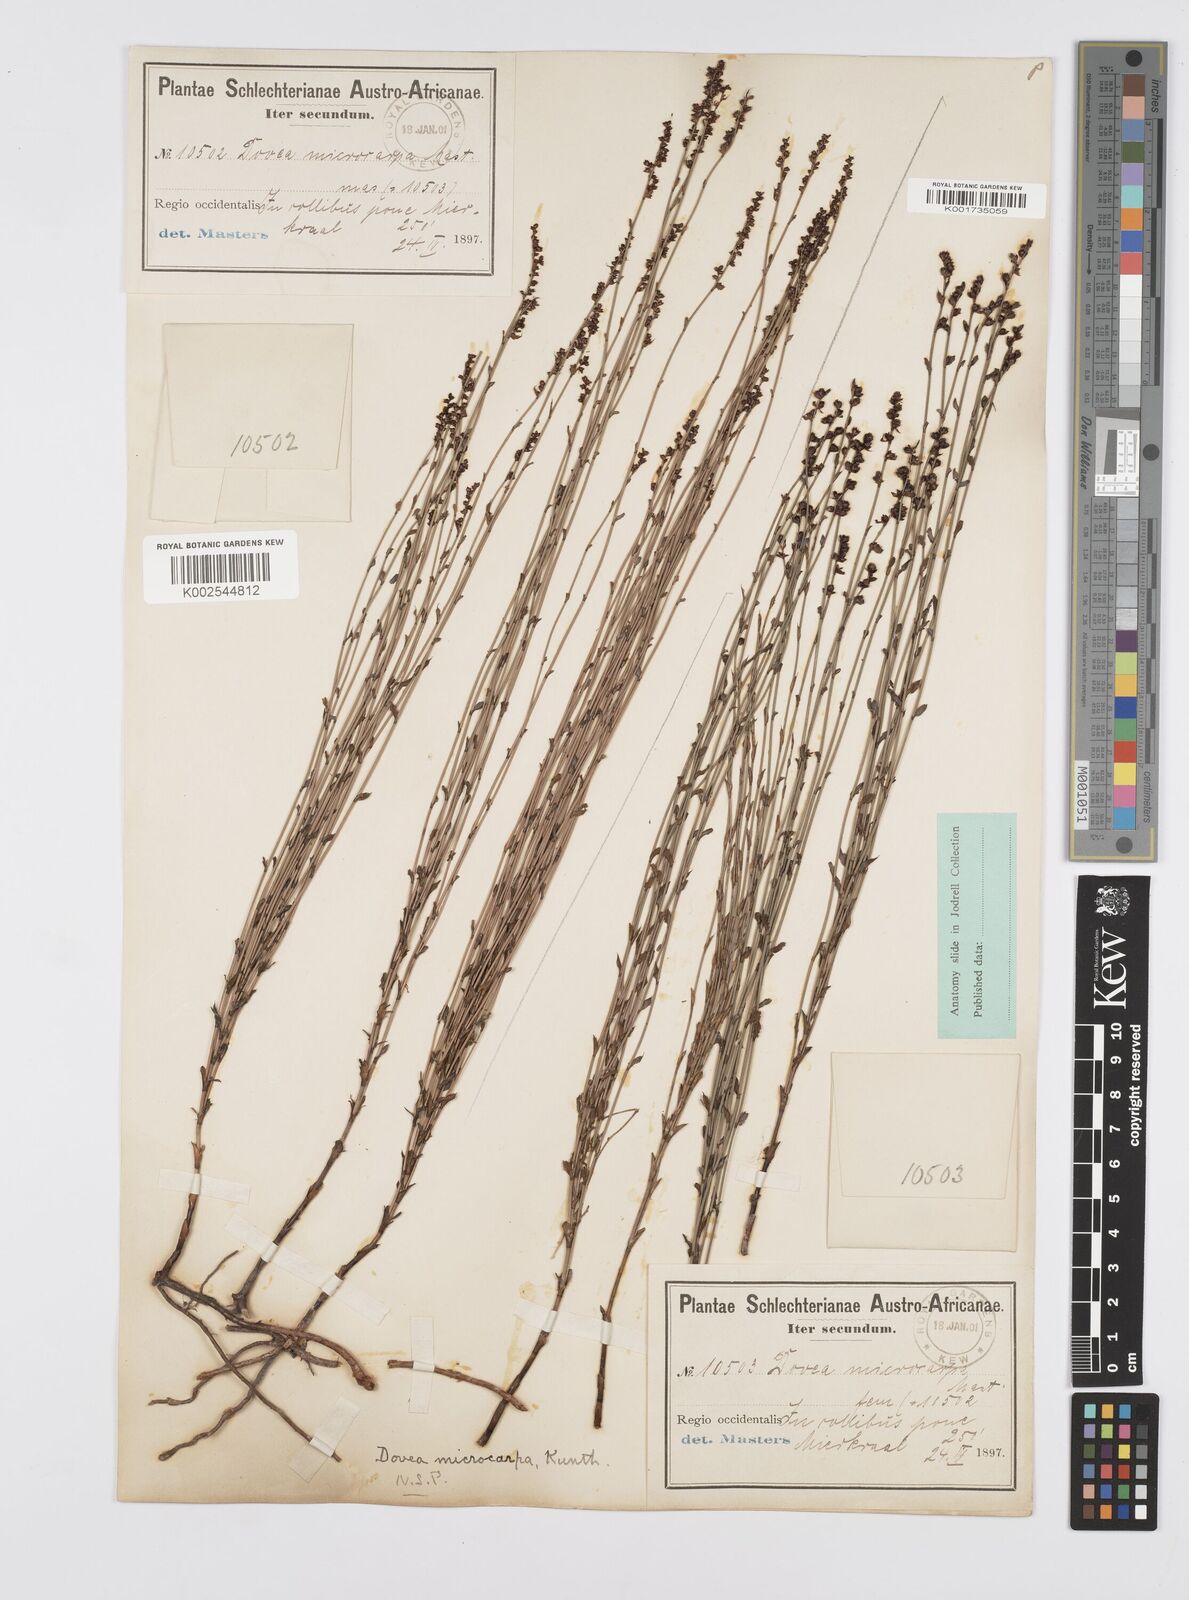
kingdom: Plantae
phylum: Tracheophyta
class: Liliopsida
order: Poales
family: Restionaceae
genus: Elegia
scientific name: Elegia microcarpa
